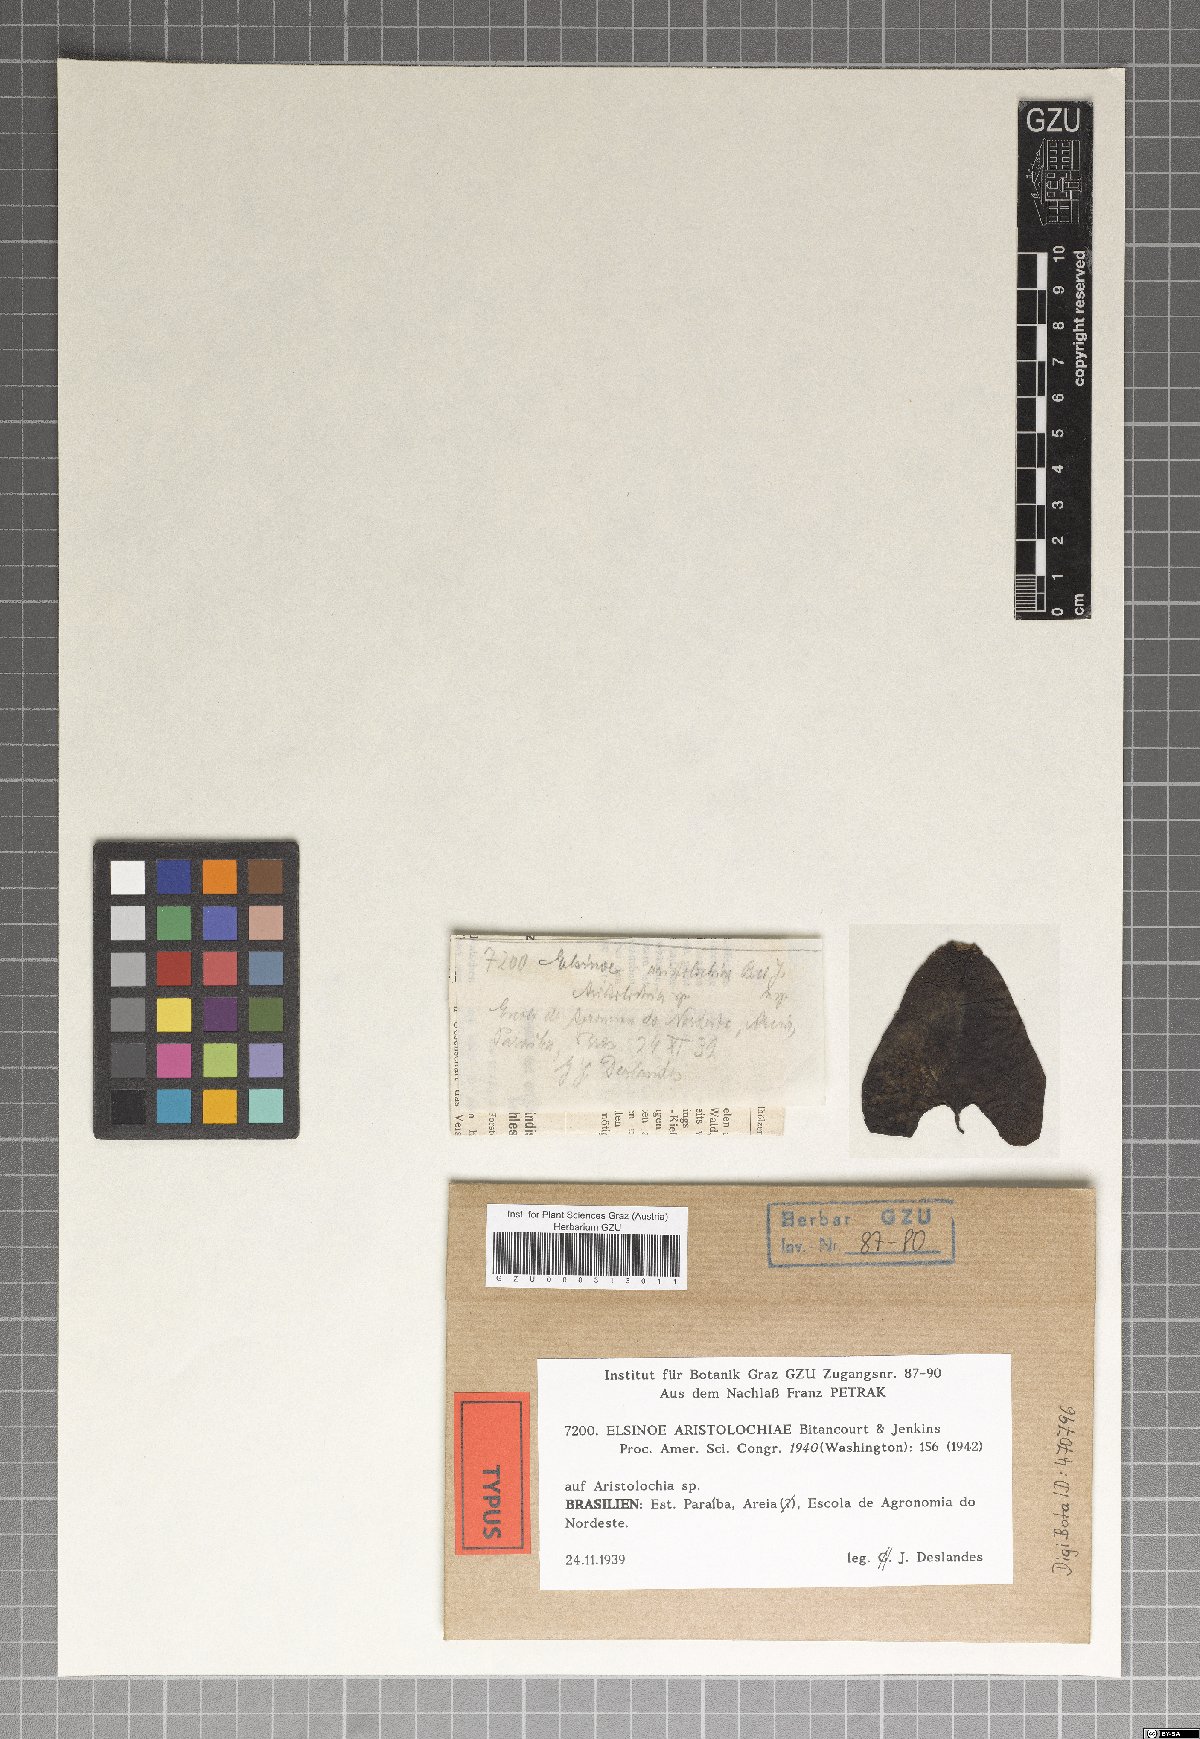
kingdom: Fungi
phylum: Ascomycota
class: Dothideomycetes
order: Myriangiales
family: Elsinoaceae
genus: Elsinoe
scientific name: Elsinoe aristolochiae
